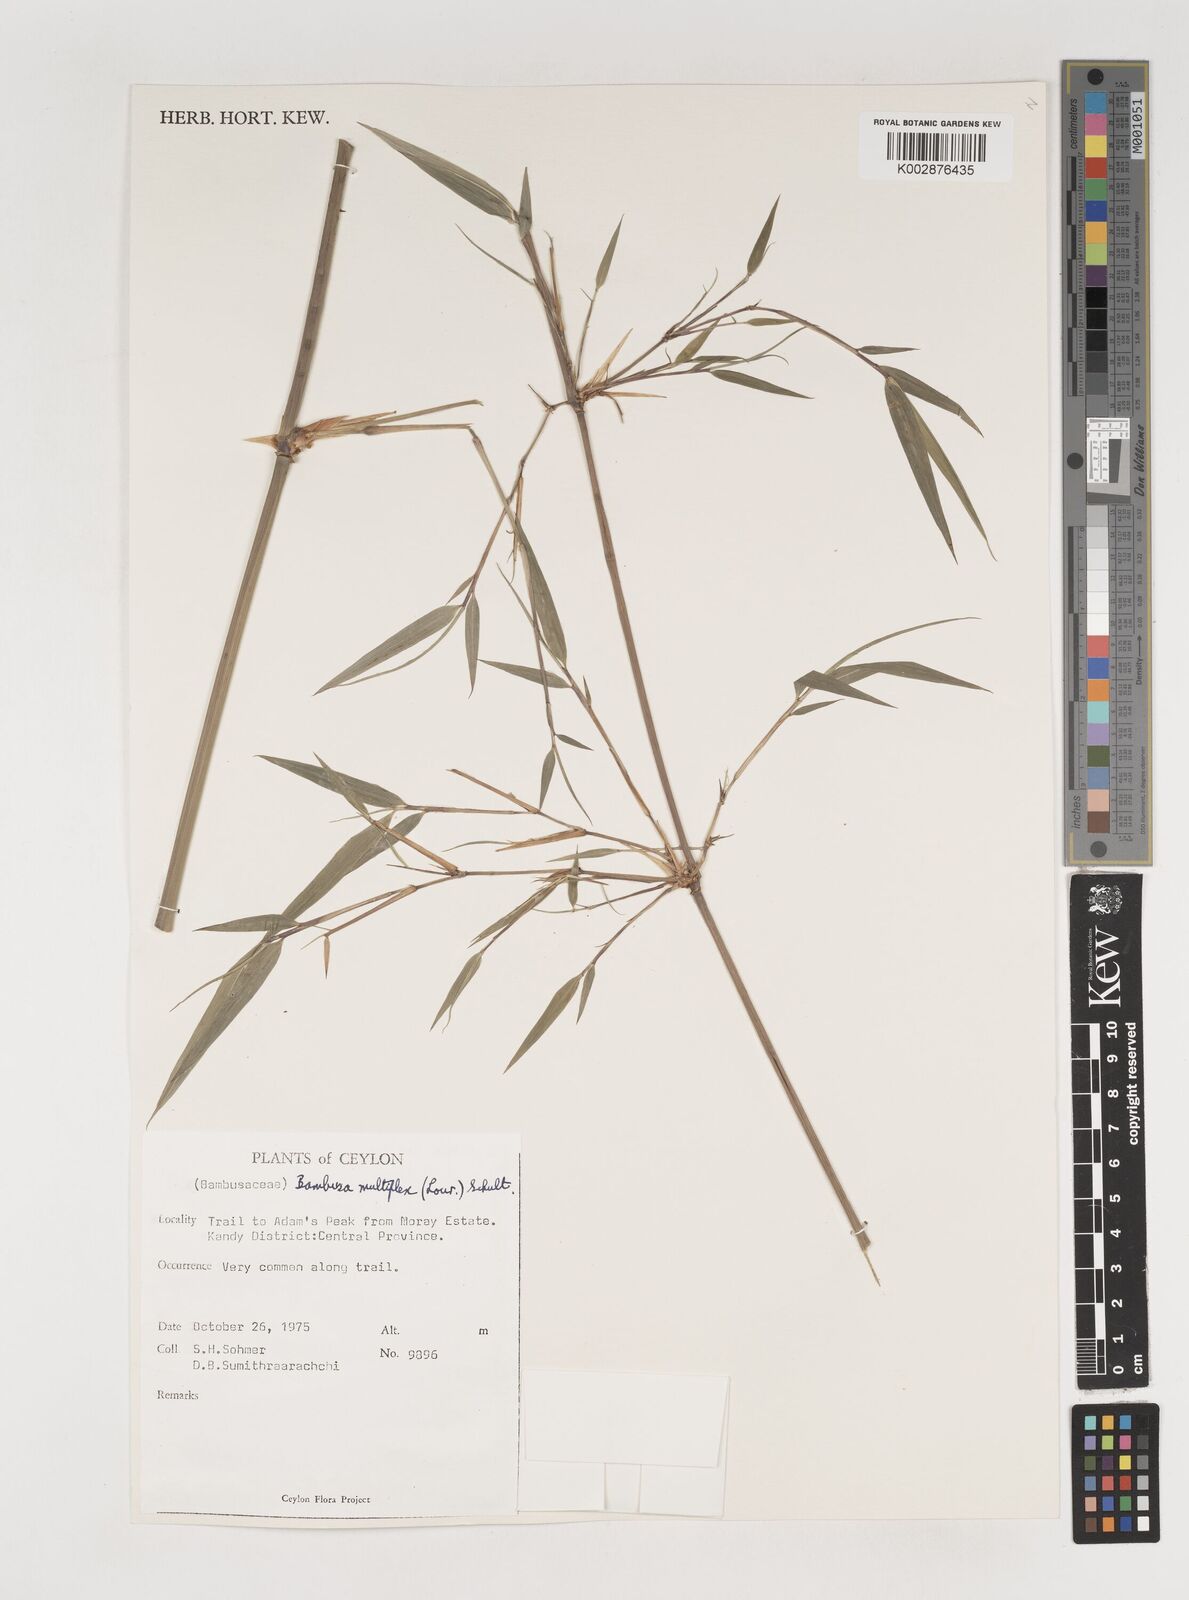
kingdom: Plantae
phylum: Tracheophyta
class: Liliopsida
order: Poales
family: Poaceae
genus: Bambusa
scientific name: Bambusa multiplex
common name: Hedge bamboo
